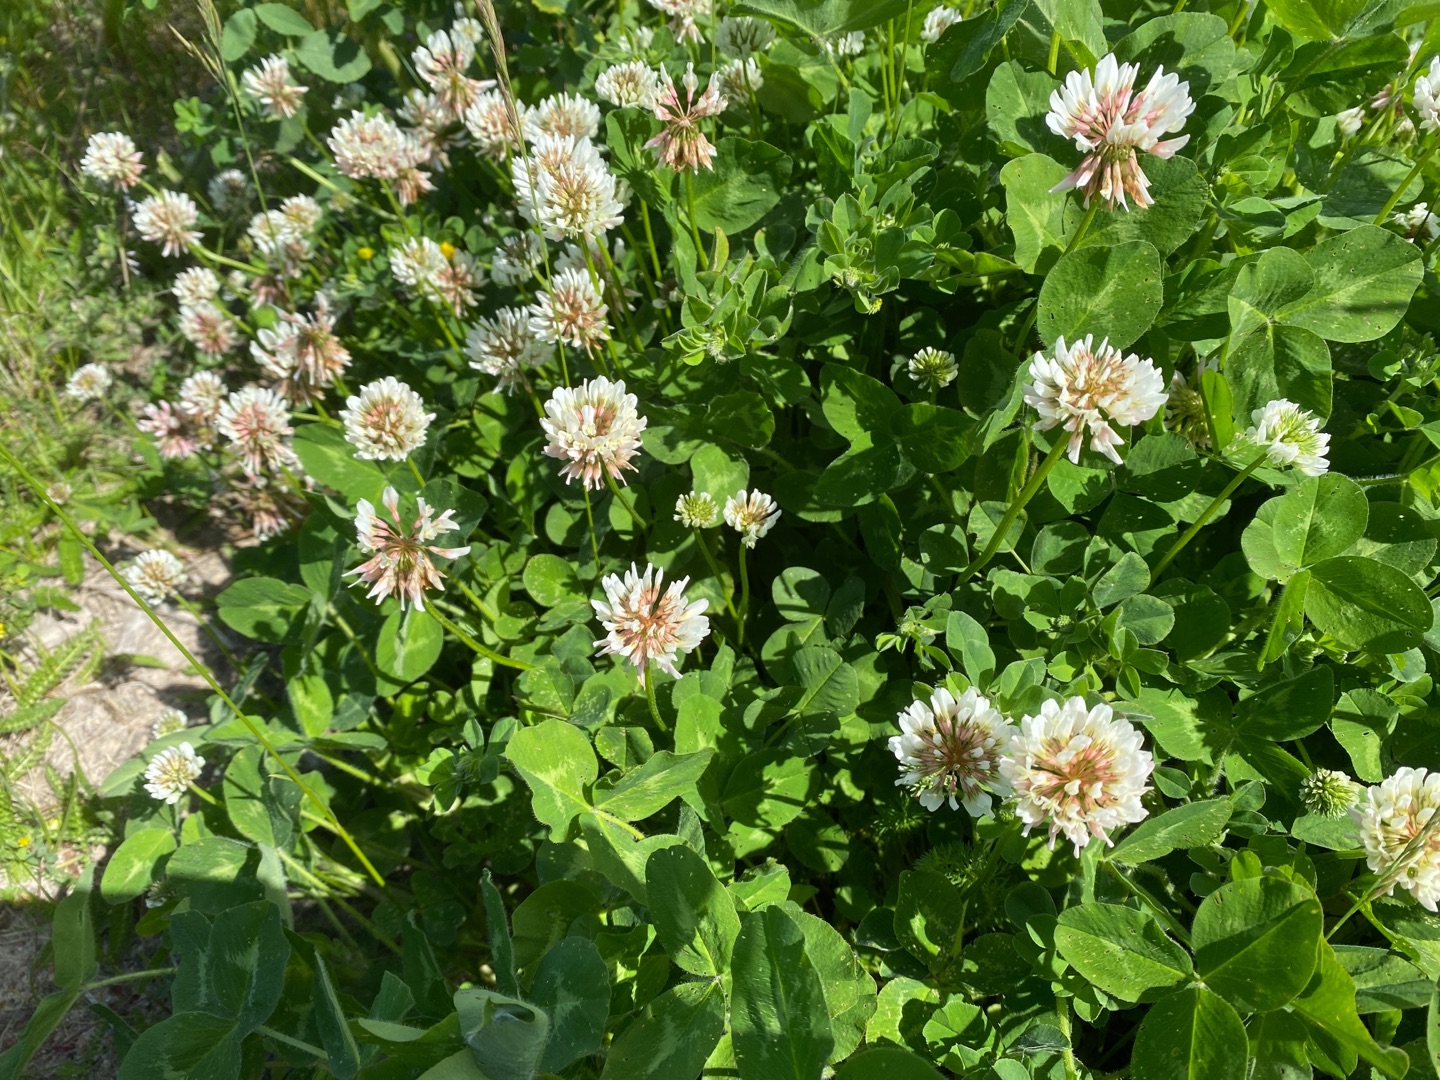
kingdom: Plantae
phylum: Tracheophyta
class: Magnoliopsida
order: Fabales
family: Fabaceae
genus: Trifolium
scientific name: Trifolium repens
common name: Hvid-kløver
